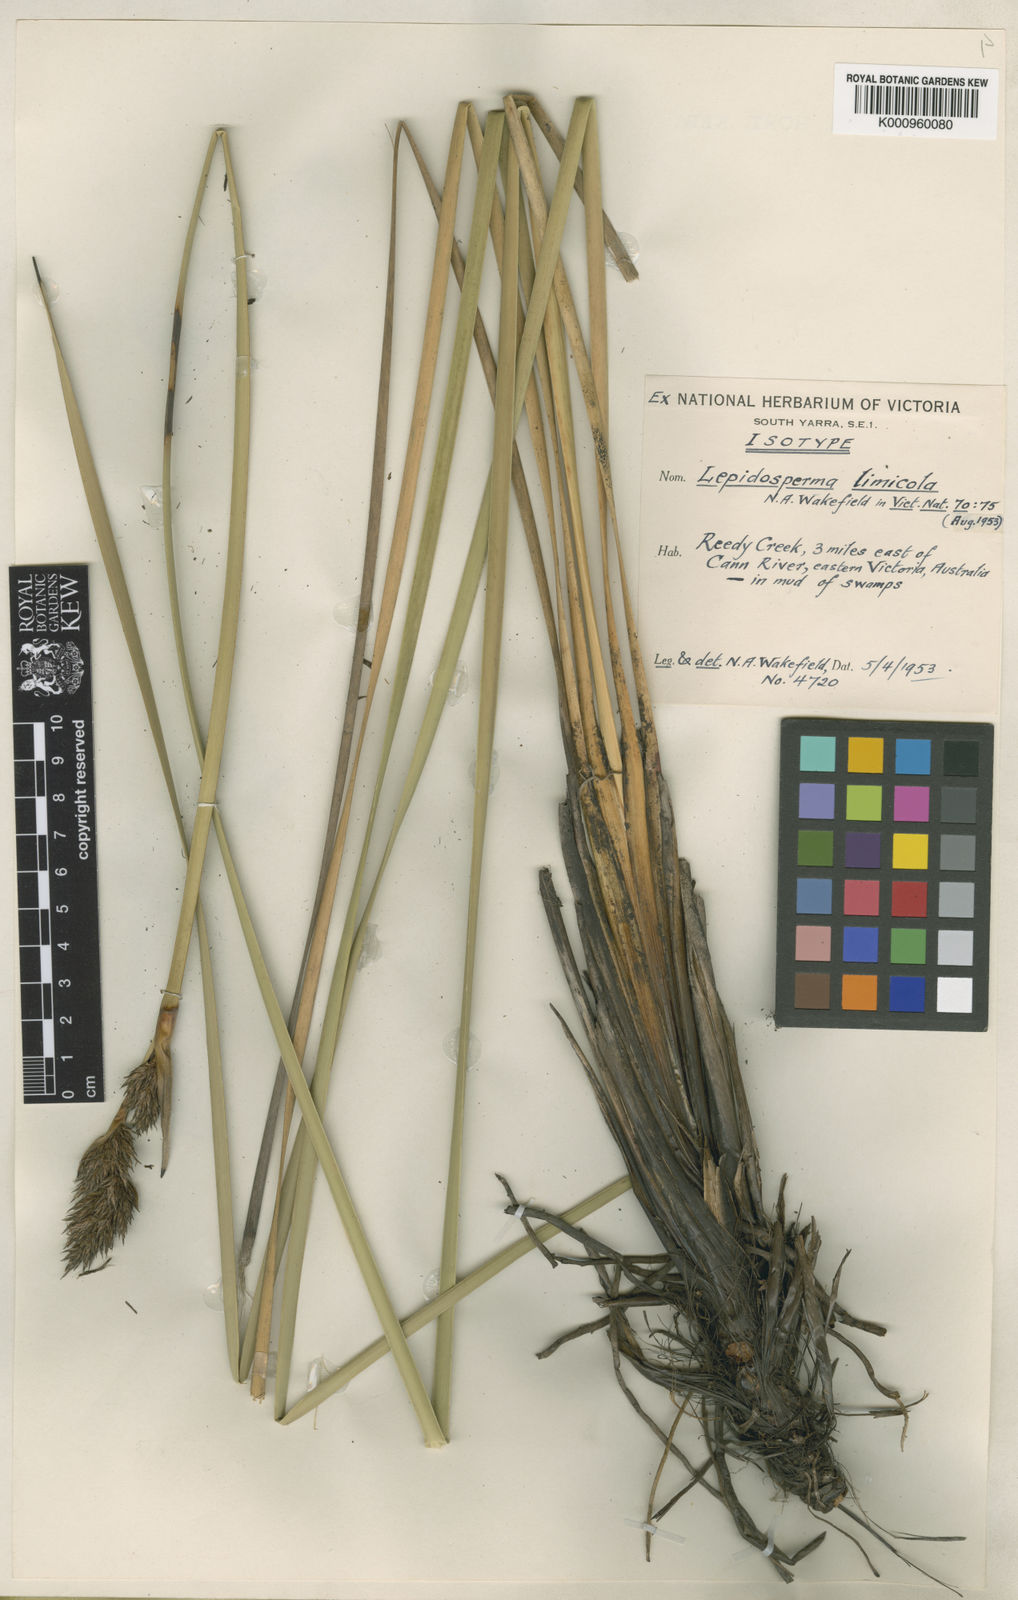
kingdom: Plantae
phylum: Tracheophyta
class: Liliopsida
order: Poales
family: Cyperaceae
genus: Lepidosperma
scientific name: Lepidosperma limicola
